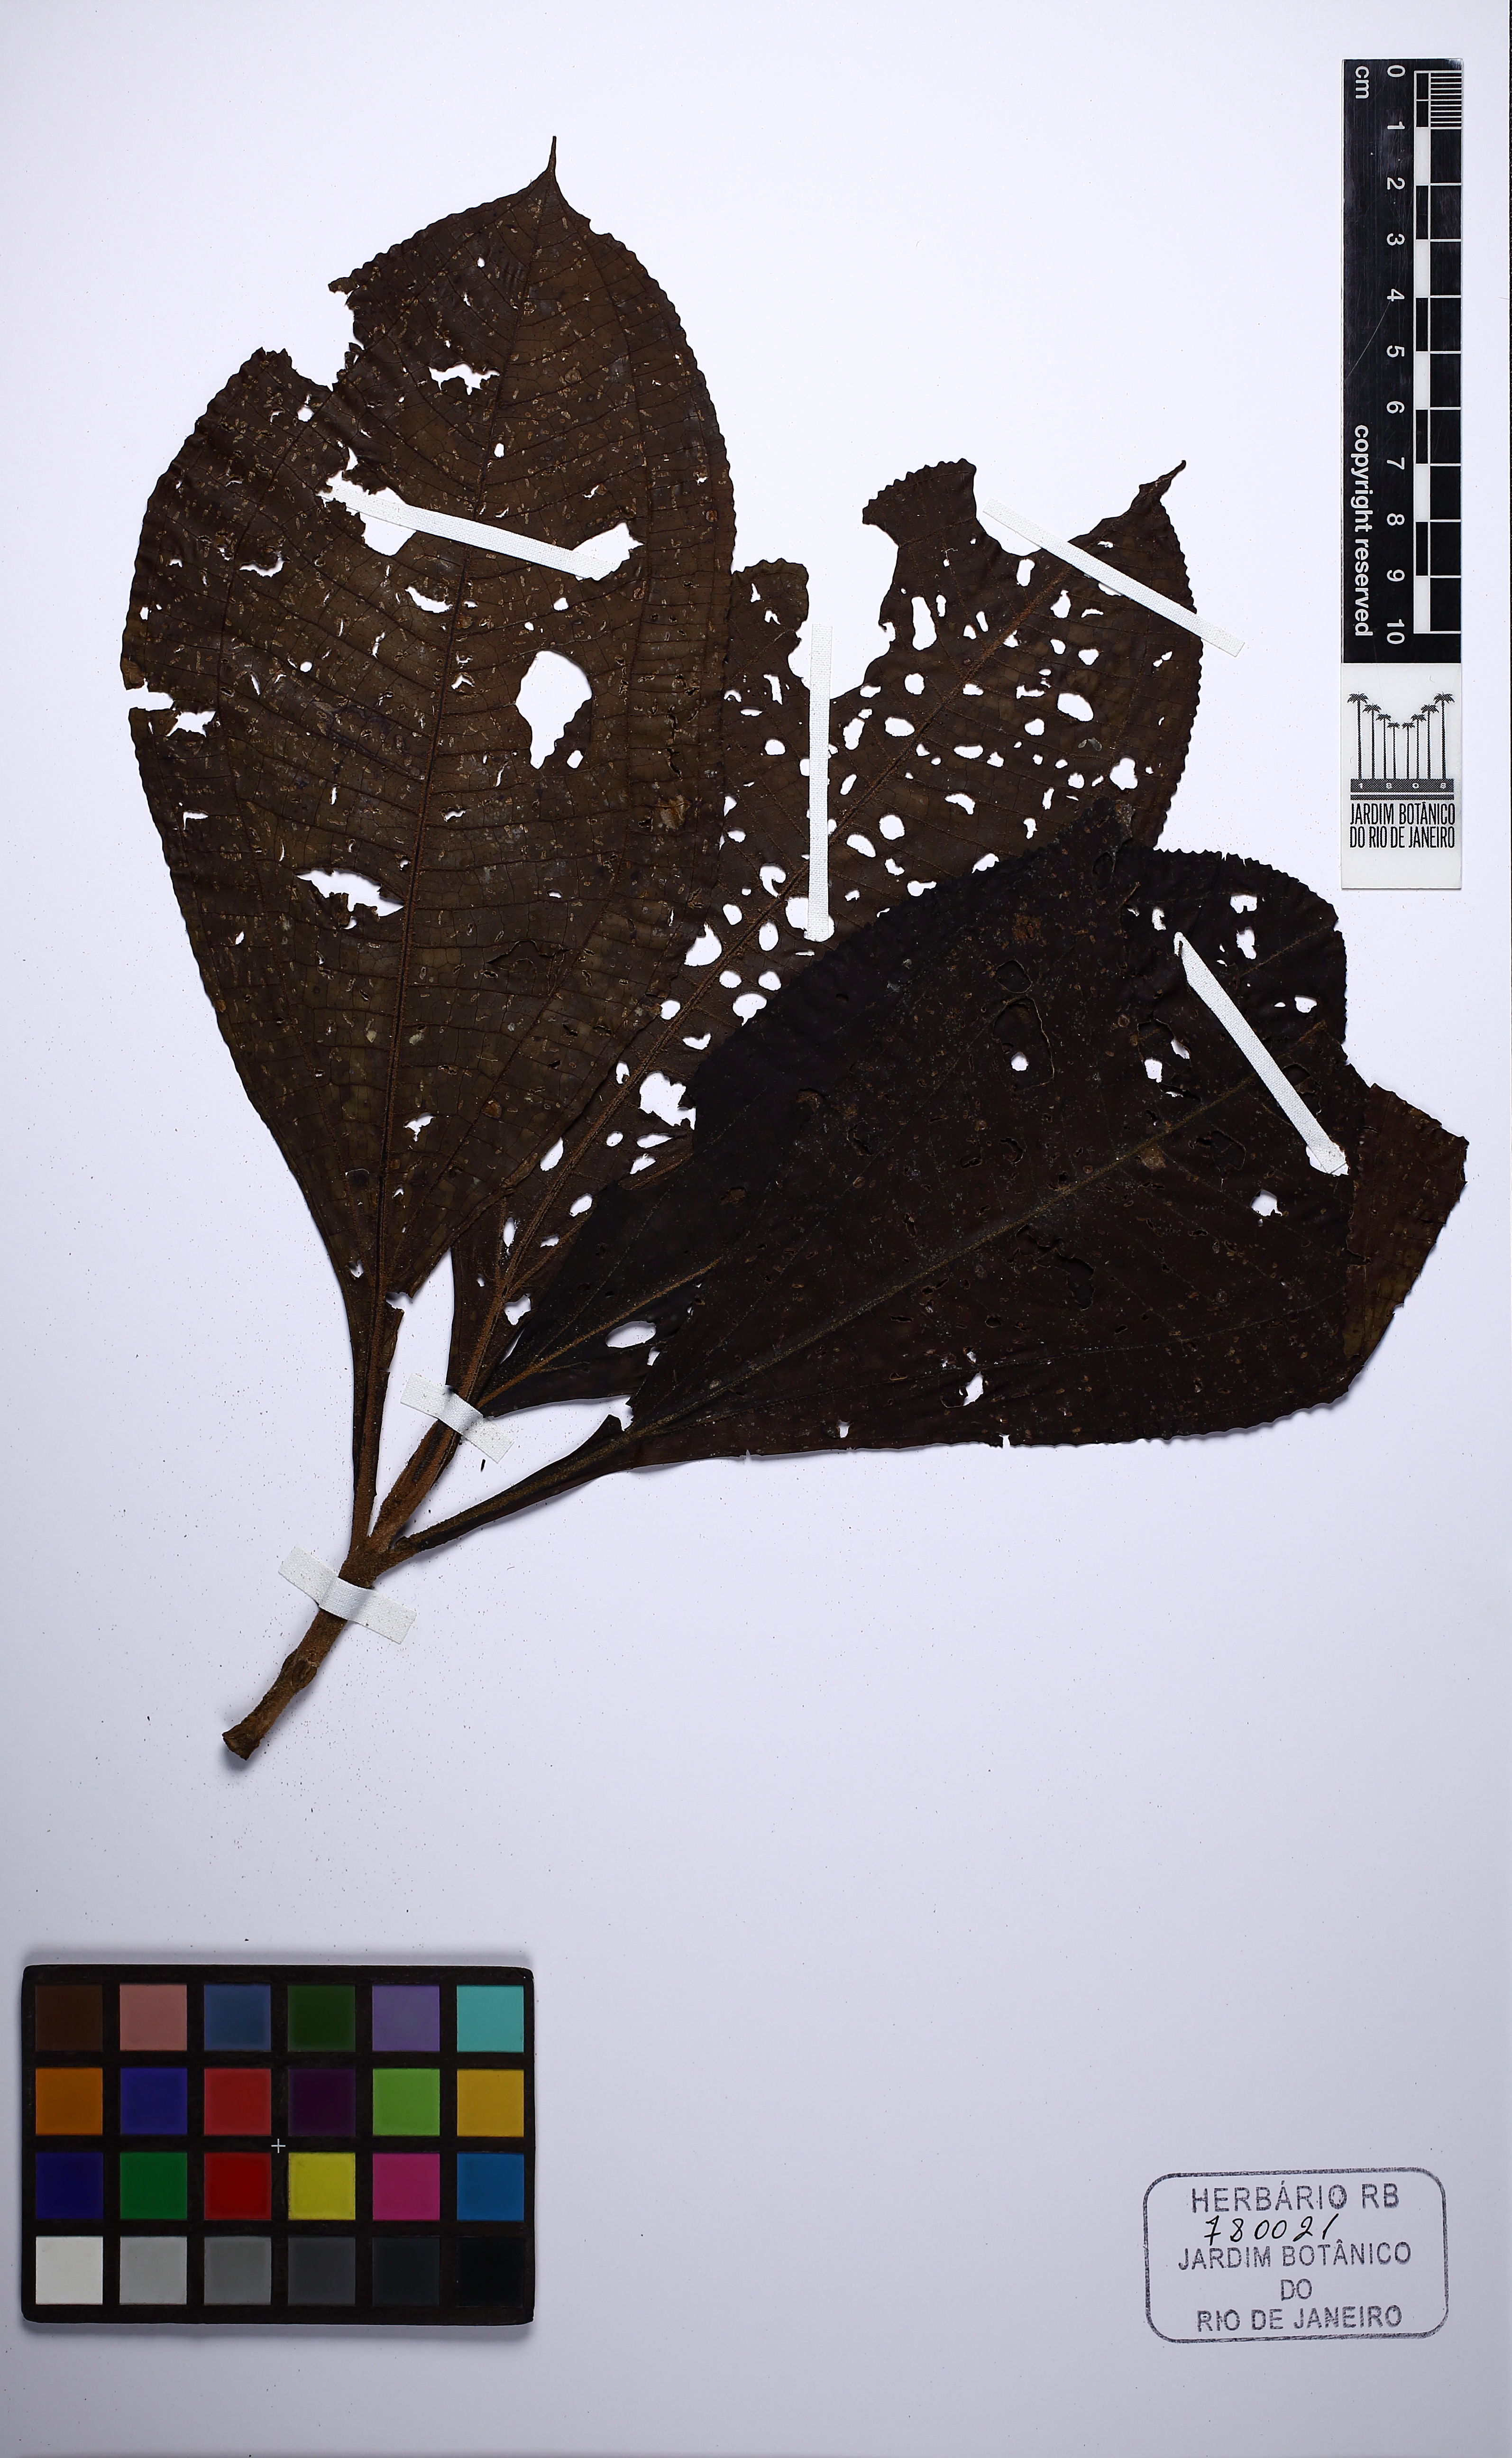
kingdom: Plantae
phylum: Tracheophyta
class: Magnoliopsida
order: Myrtales
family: Melastomataceae
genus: Miconia
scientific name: Miconia phanerostila
